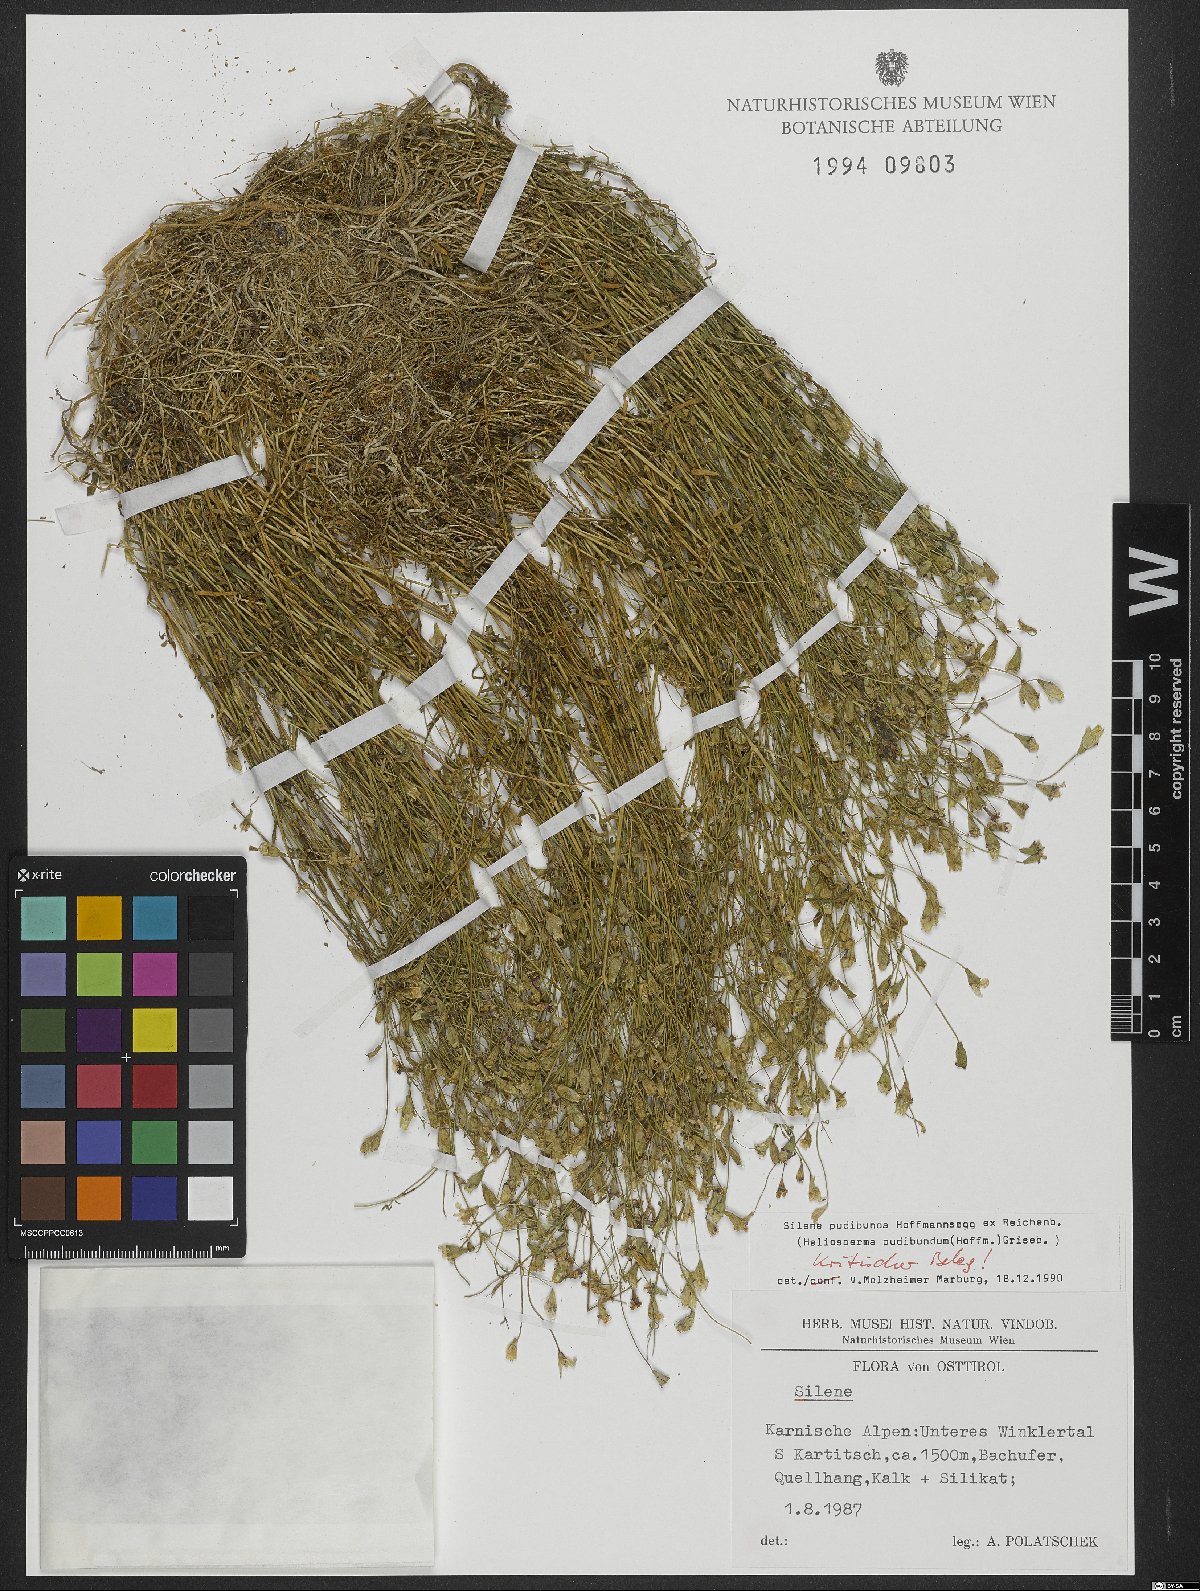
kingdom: Plantae
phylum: Tracheophyta
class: Magnoliopsida
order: Caryophyllales
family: Caryophyllaceae
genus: Heliosperma
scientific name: Heliosperma pudibundum
